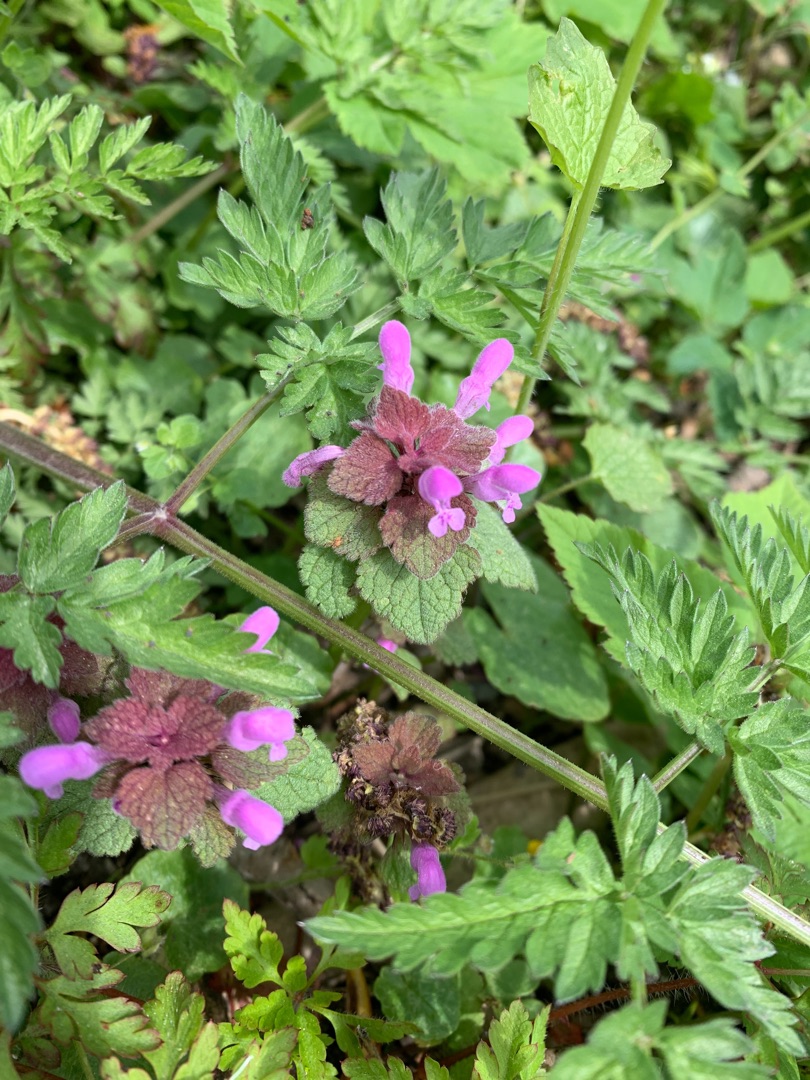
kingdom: Plantae
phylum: Tracheophyta
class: Magnoliopsida
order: Lamiales
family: Lamiaceae
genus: Lamium
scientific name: Lamium purpureum
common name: Rød tvetand
